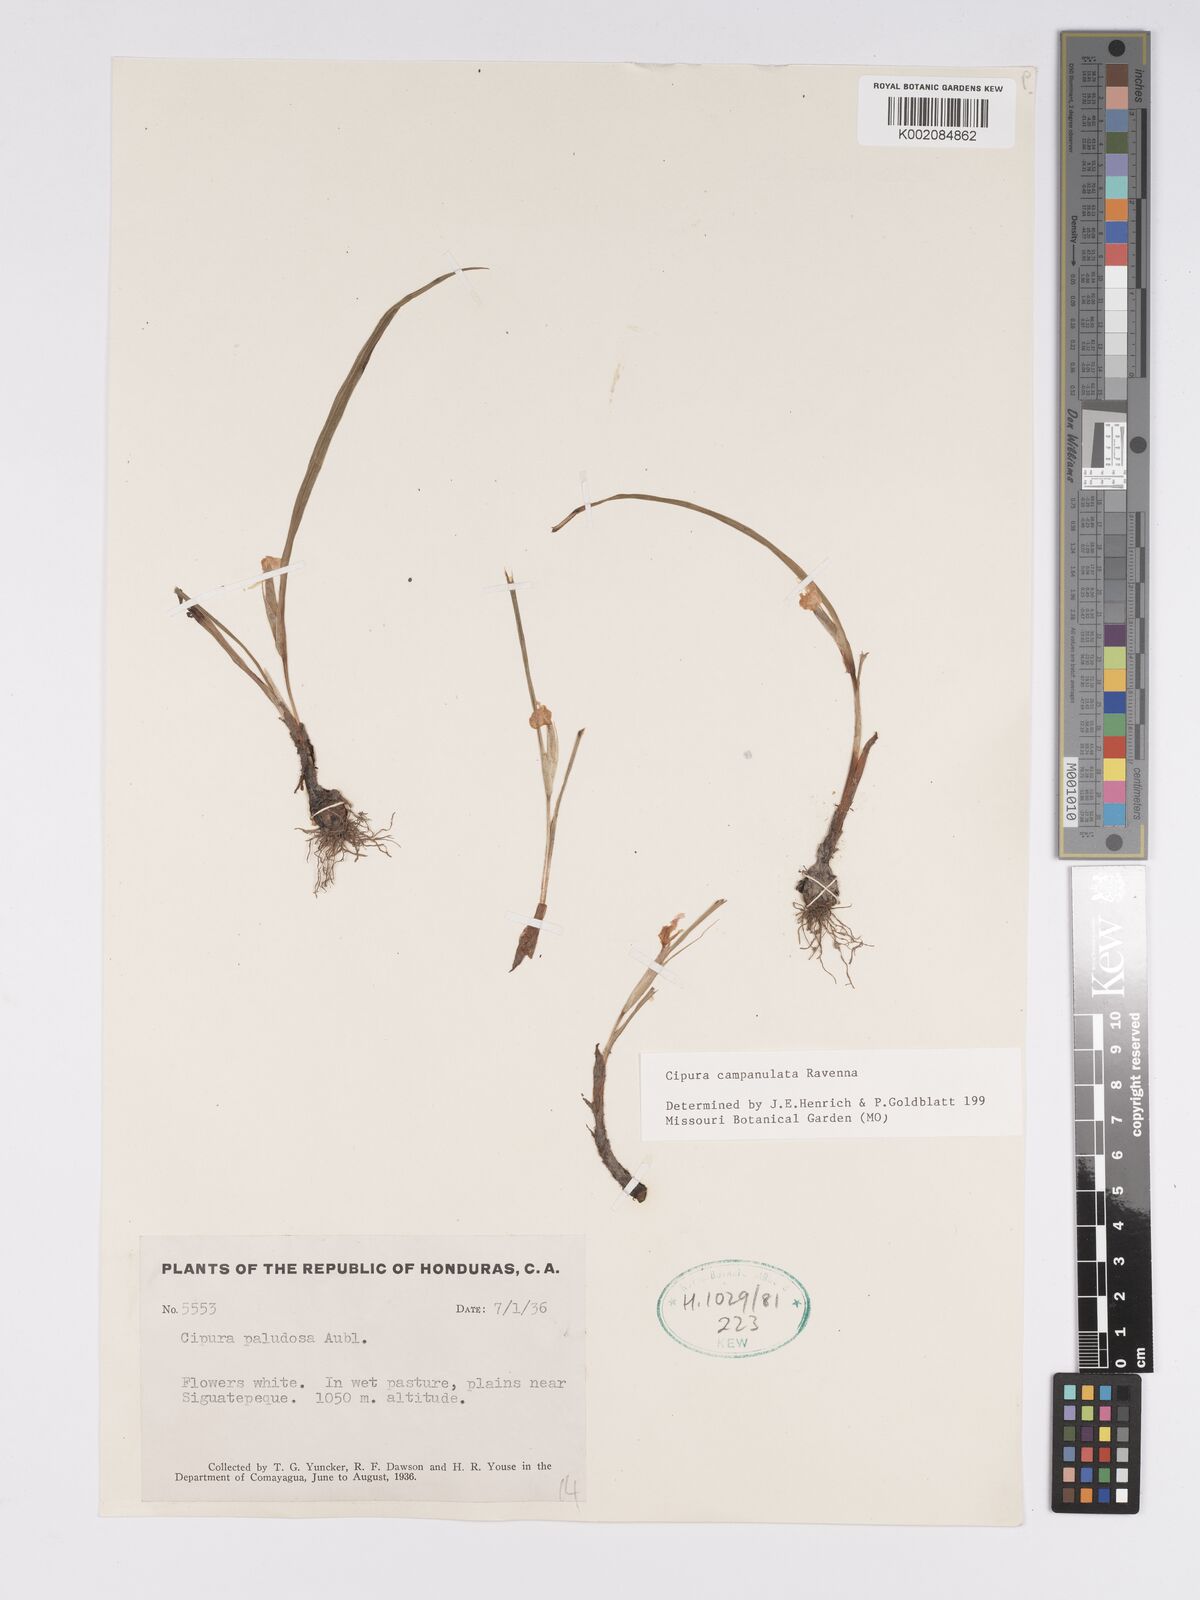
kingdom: Plantae
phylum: Tracheophyta
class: Liliopsida
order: Asparagales
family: Iridaceae
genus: Cipura
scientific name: Cipura campanulata
